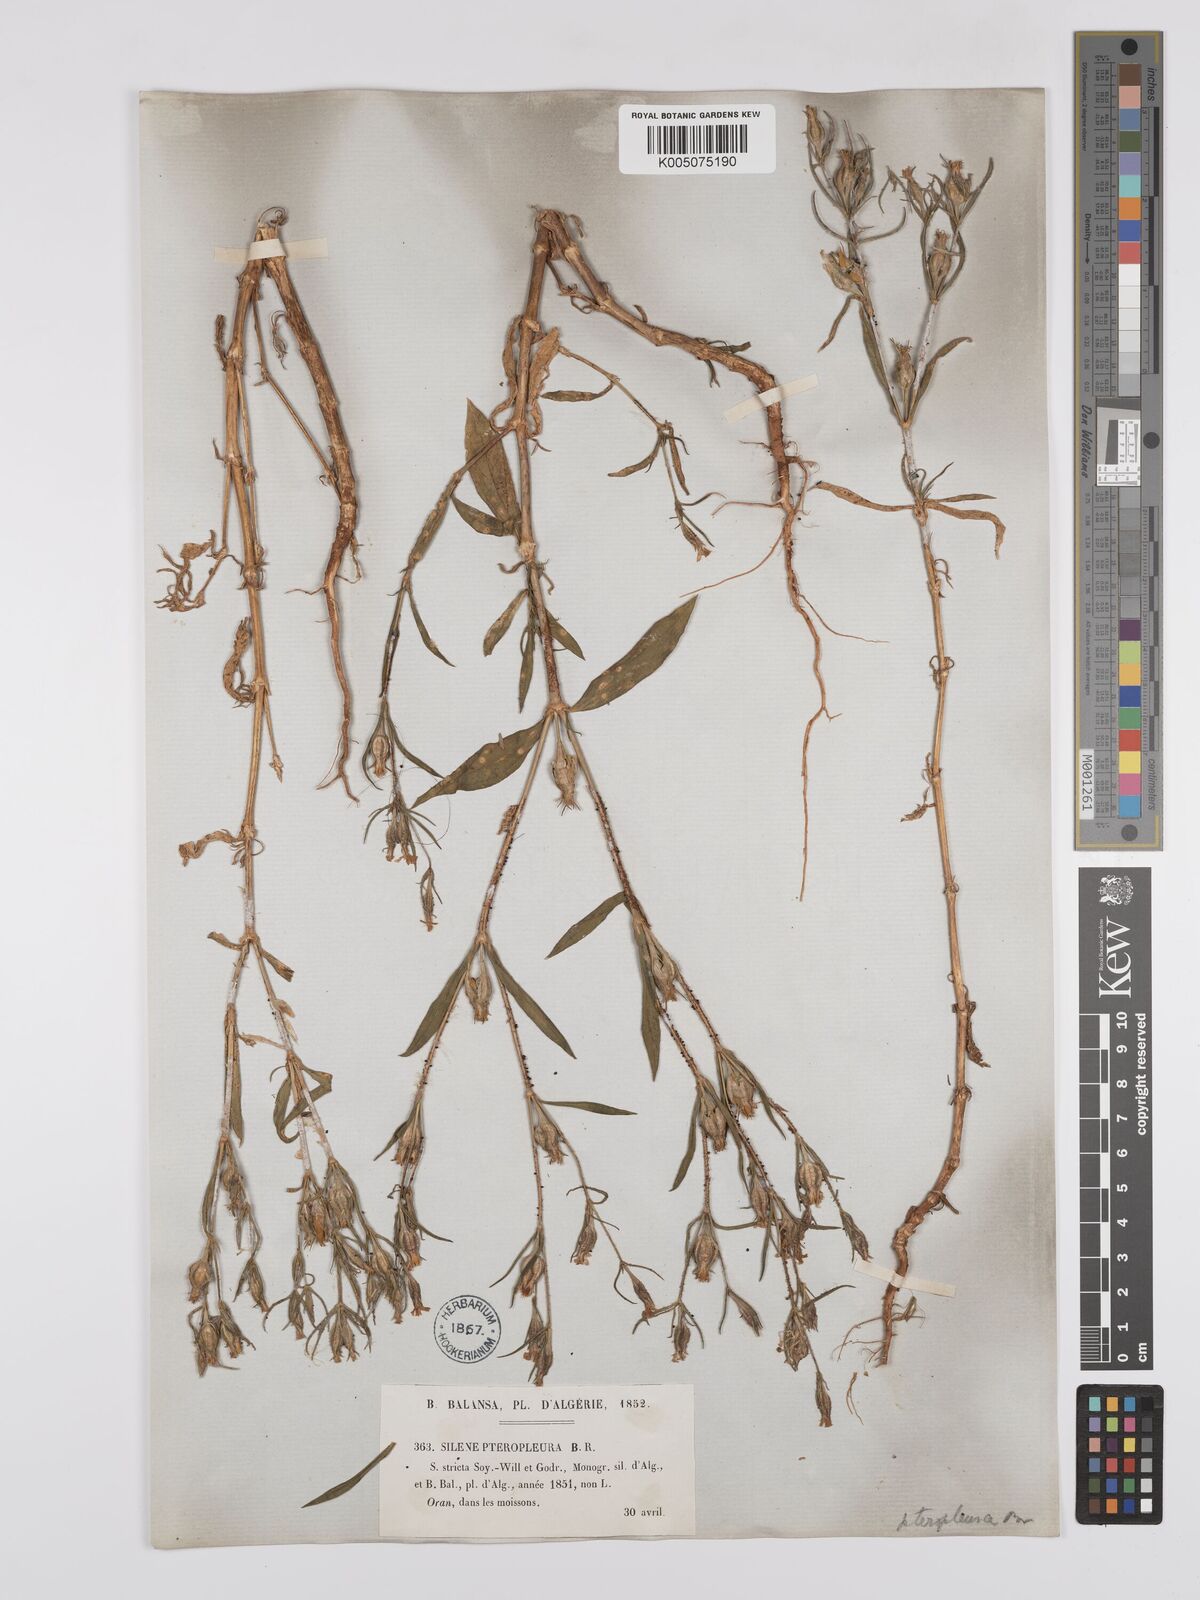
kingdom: Plantae
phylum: Tracheophyta
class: Magnoliopsida
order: Caryophyllales
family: Caryophyllaceae
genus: Silene
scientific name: Silene stricta
